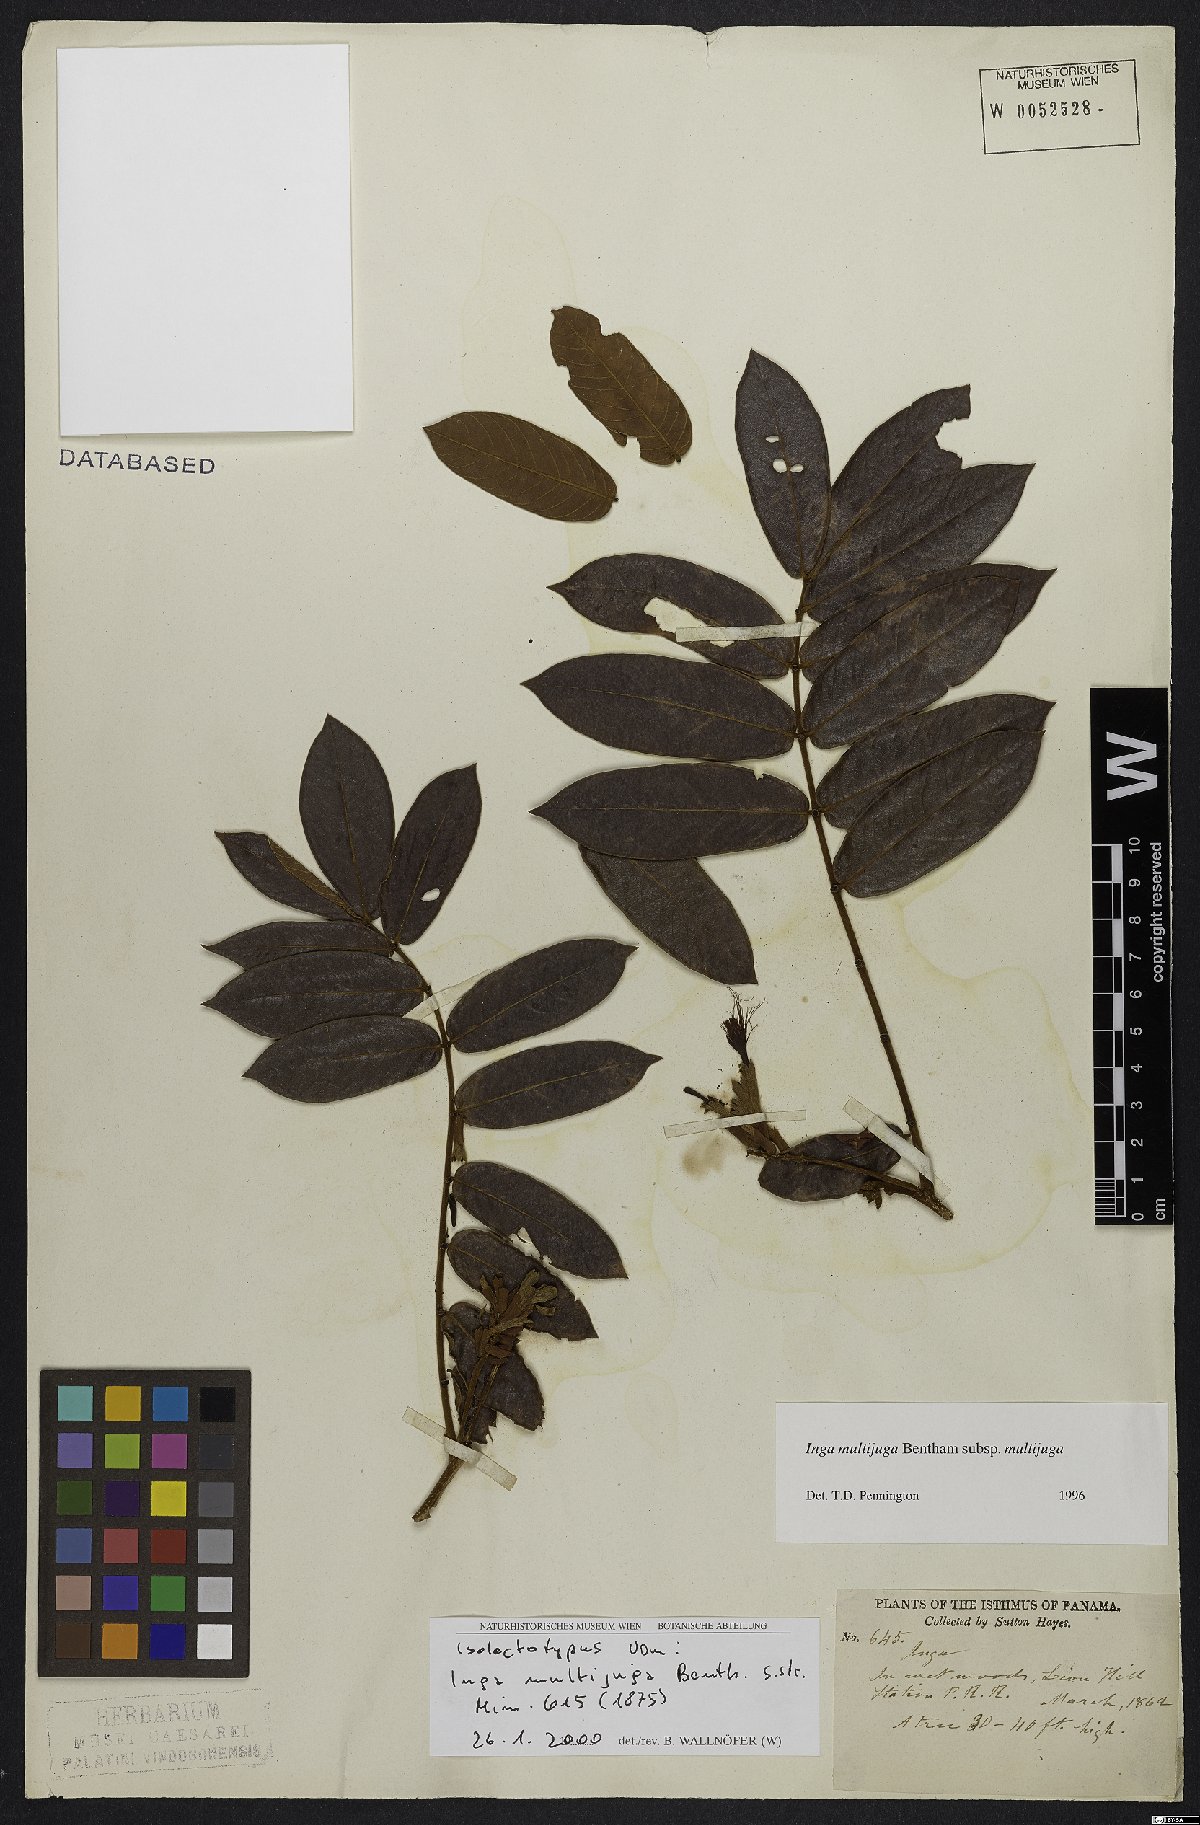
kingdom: Plantae
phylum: Tracheophyta
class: Magnoliopsida
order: Fabales
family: Fabaceae
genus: Inga
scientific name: Inga multijuga
